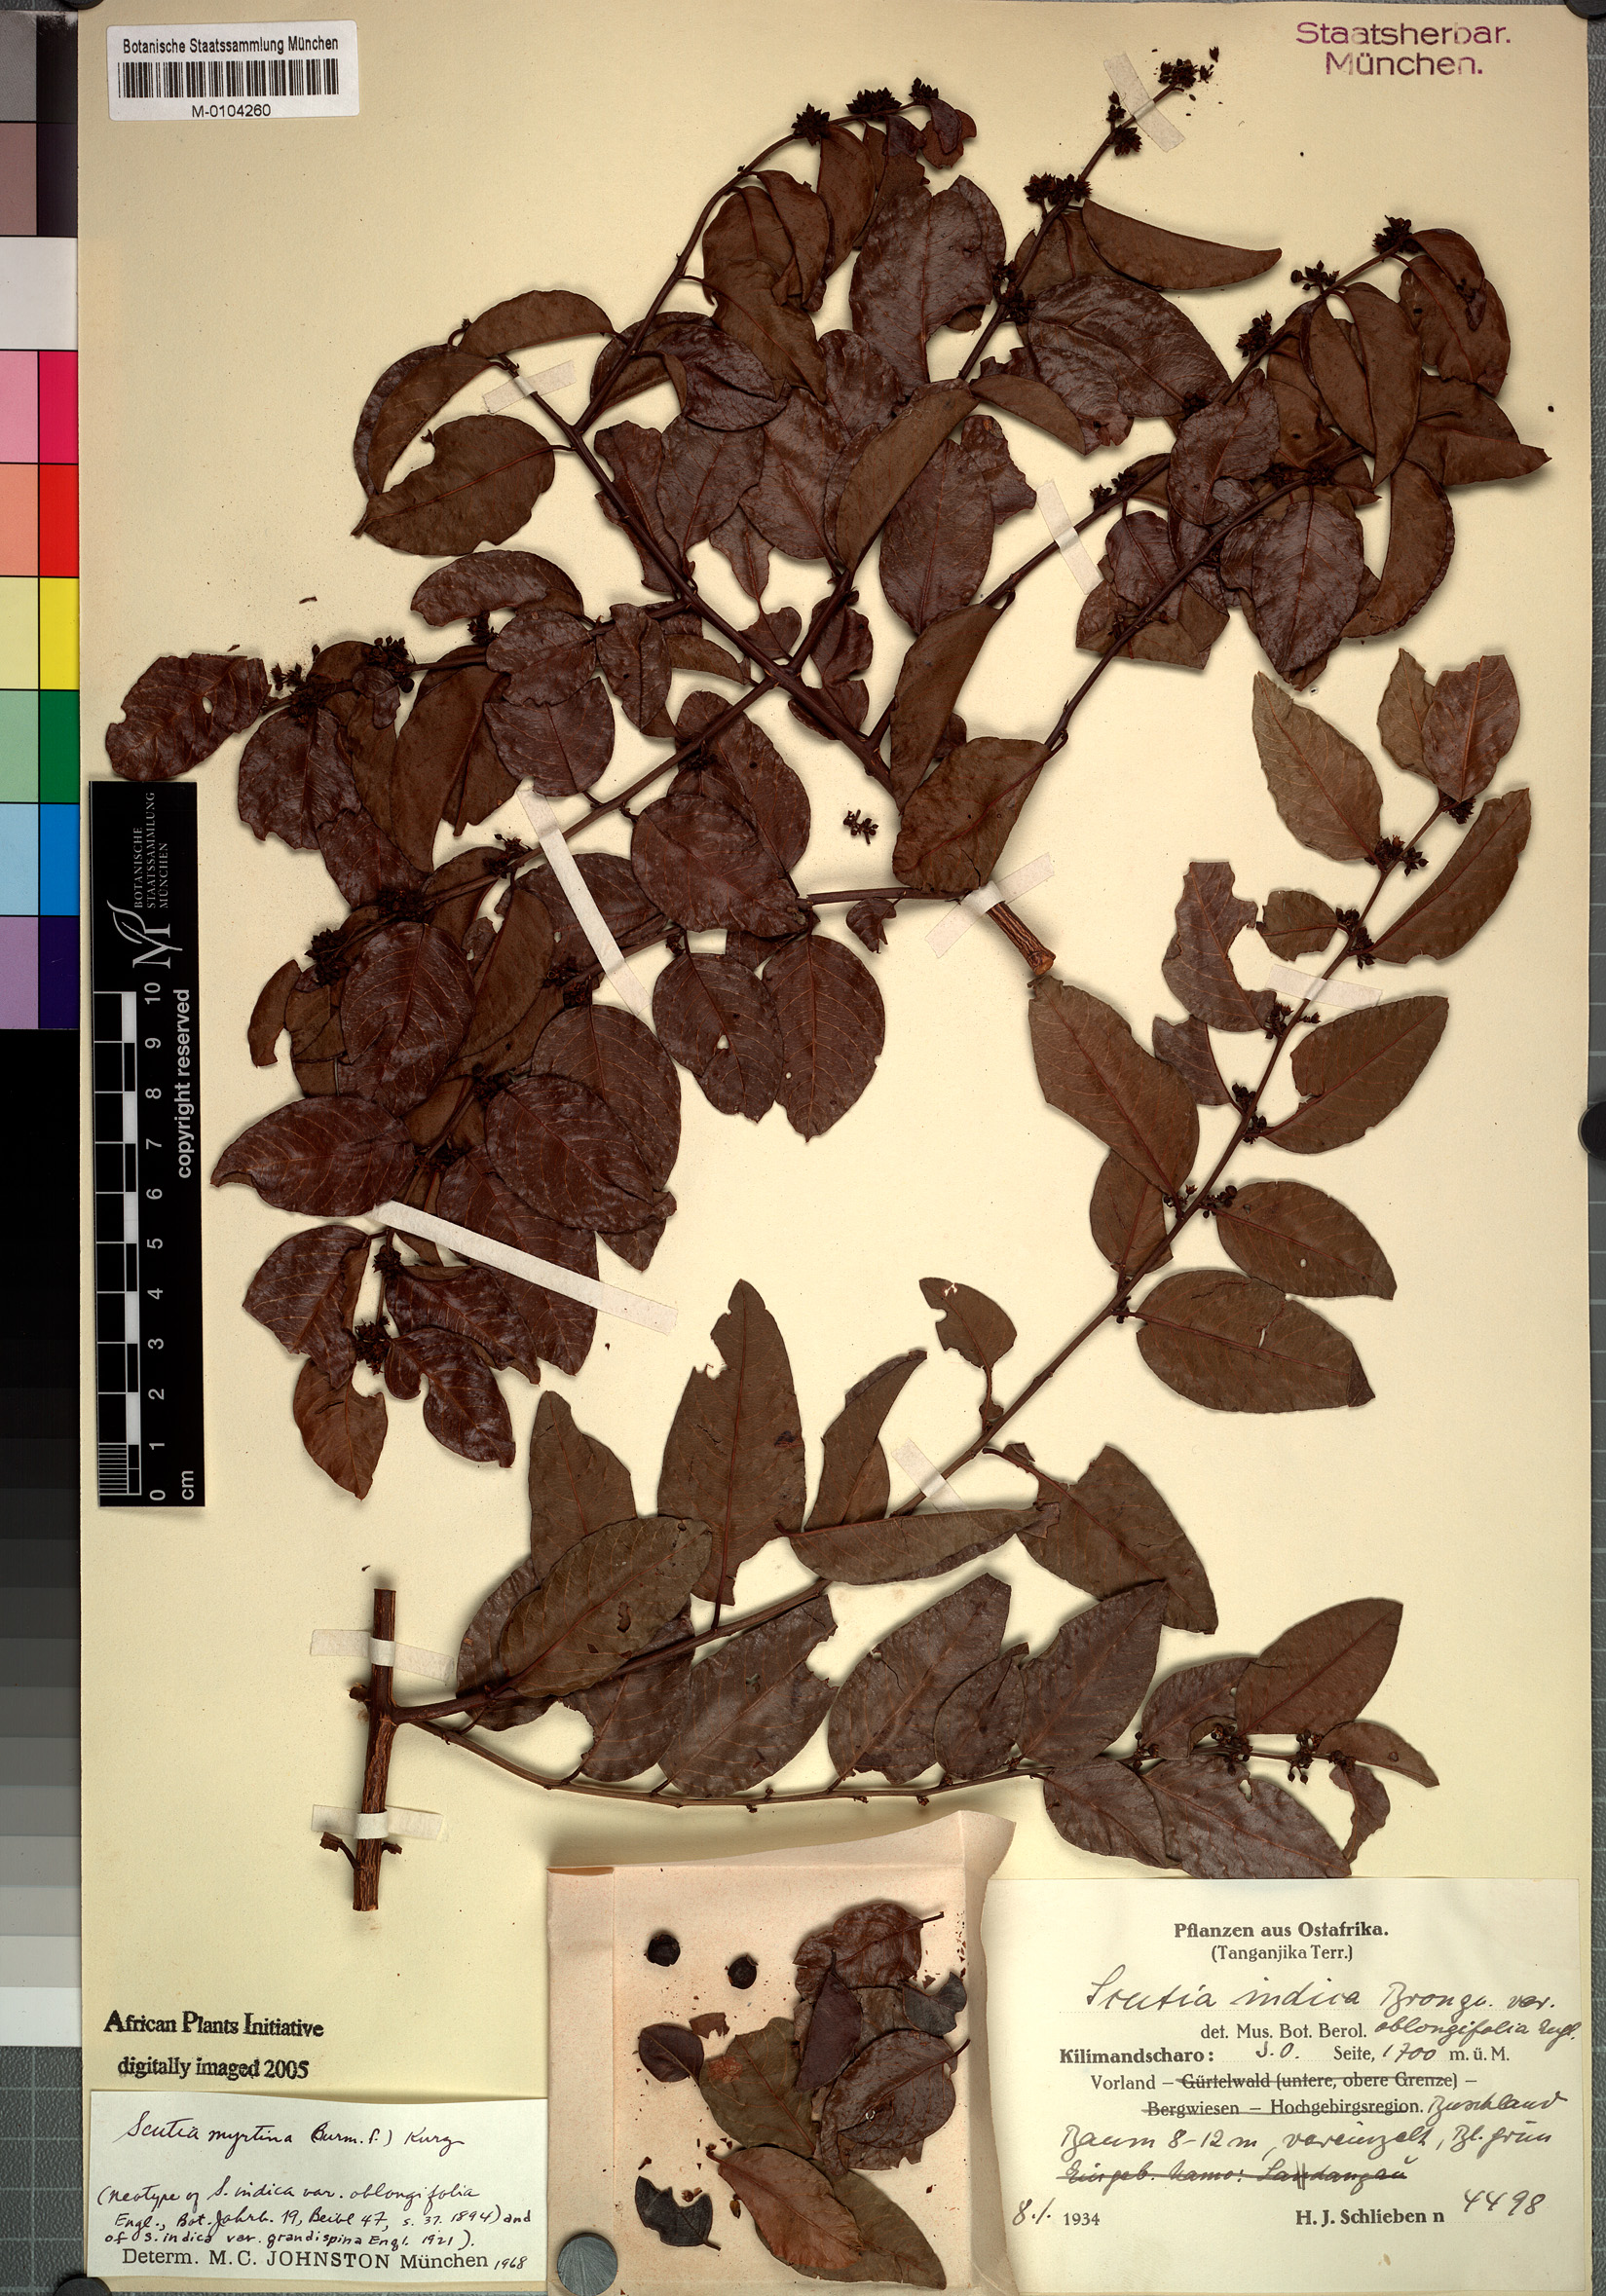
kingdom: Plantae
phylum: Tracheophyta
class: Magnoliopsida
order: Rosales
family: Rhamnaceae
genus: Scutia
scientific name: Scutia myrtina
